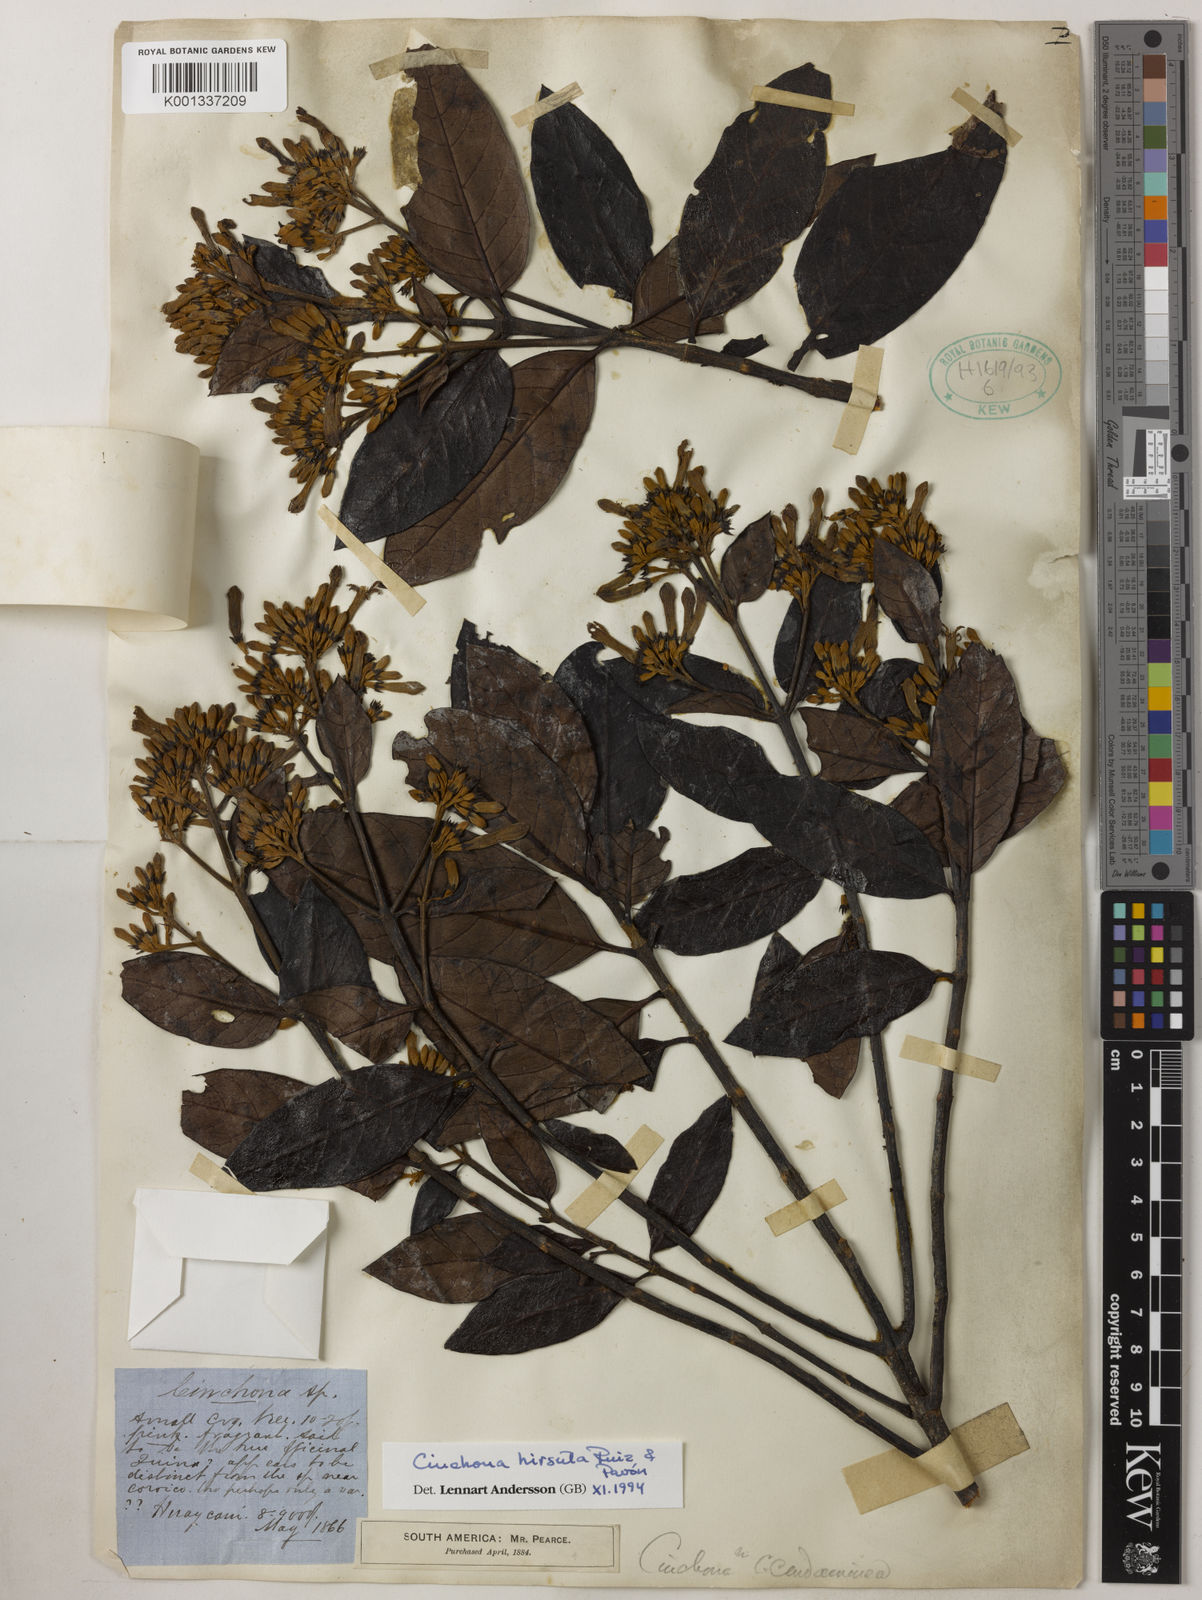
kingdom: Plantae
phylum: Tracheophyta
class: Magnoliopsida
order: Gentianales
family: Rubiaceae
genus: Cinchona
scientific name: Cinchona hirsuta
